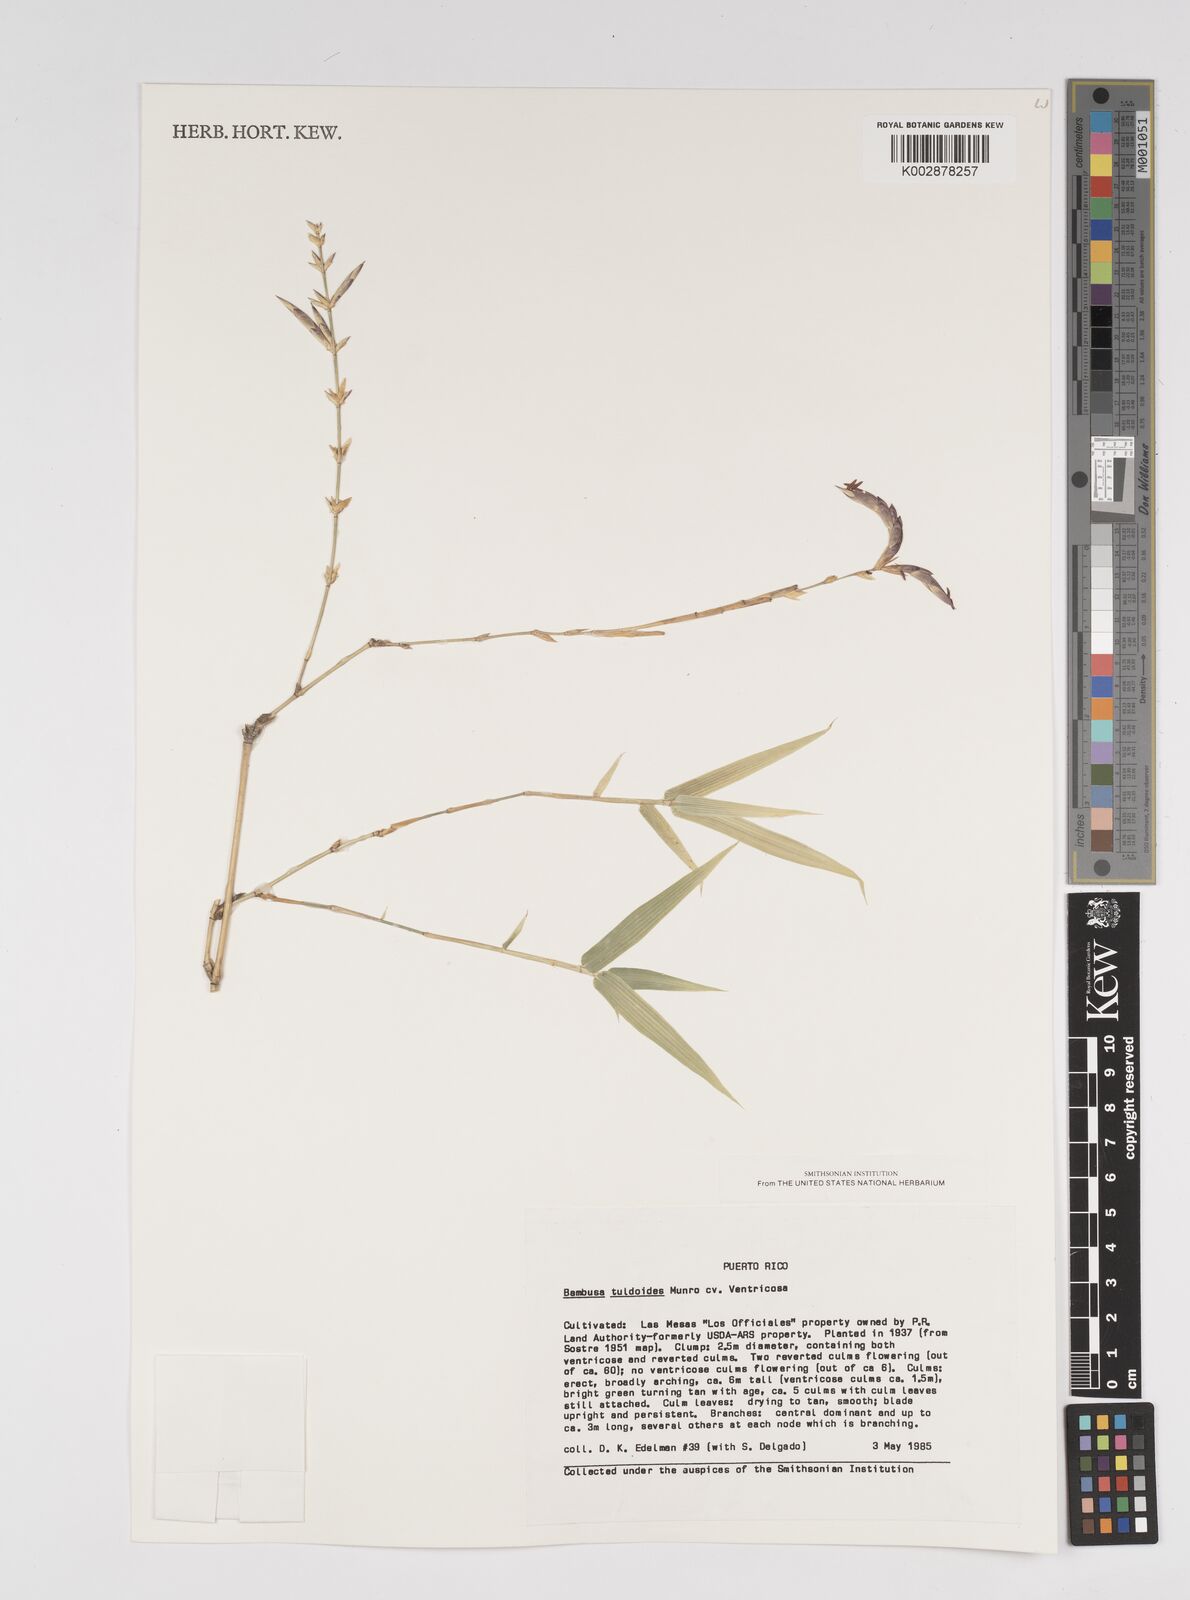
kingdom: Plantae
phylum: Tracheophyta
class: Liliopsida
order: Poales
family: Poaceae
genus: Bambusa
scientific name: Bambusa tuldoides
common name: Verdant bamboo
